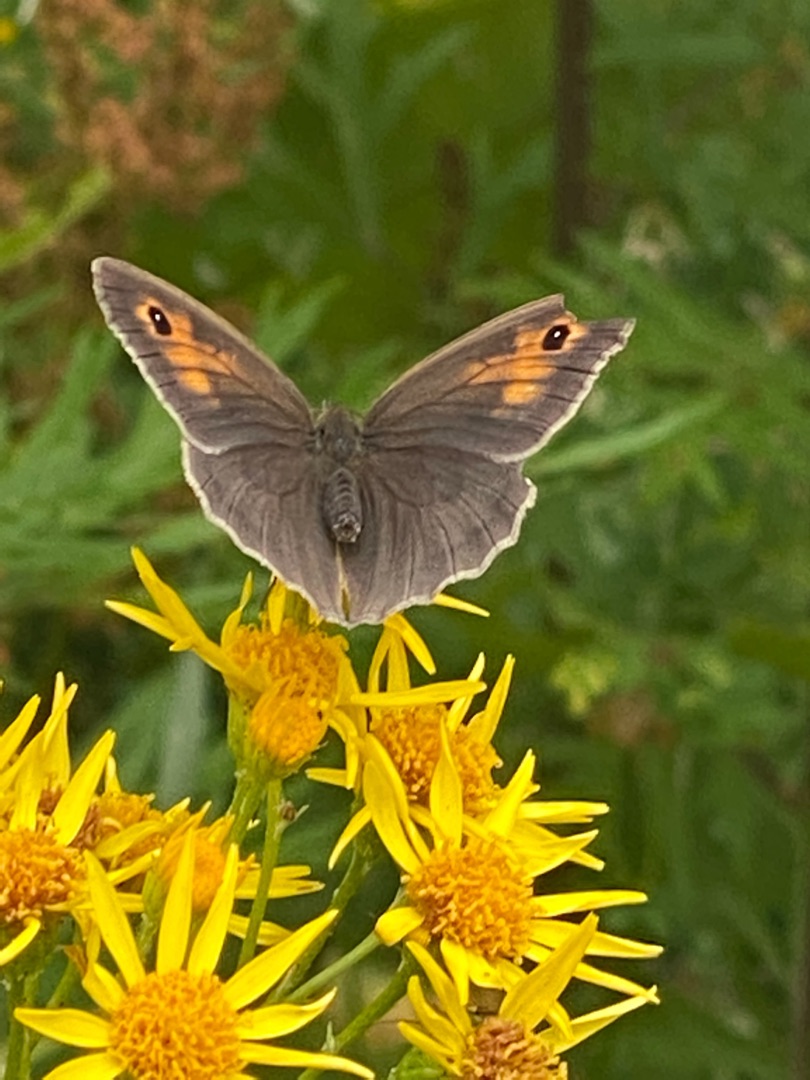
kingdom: Animalia
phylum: Arthropoda
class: Insecta
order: Lepidoptera
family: Nymphalidae
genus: Maniola
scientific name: Maniola jurtina
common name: Græsrandøje
